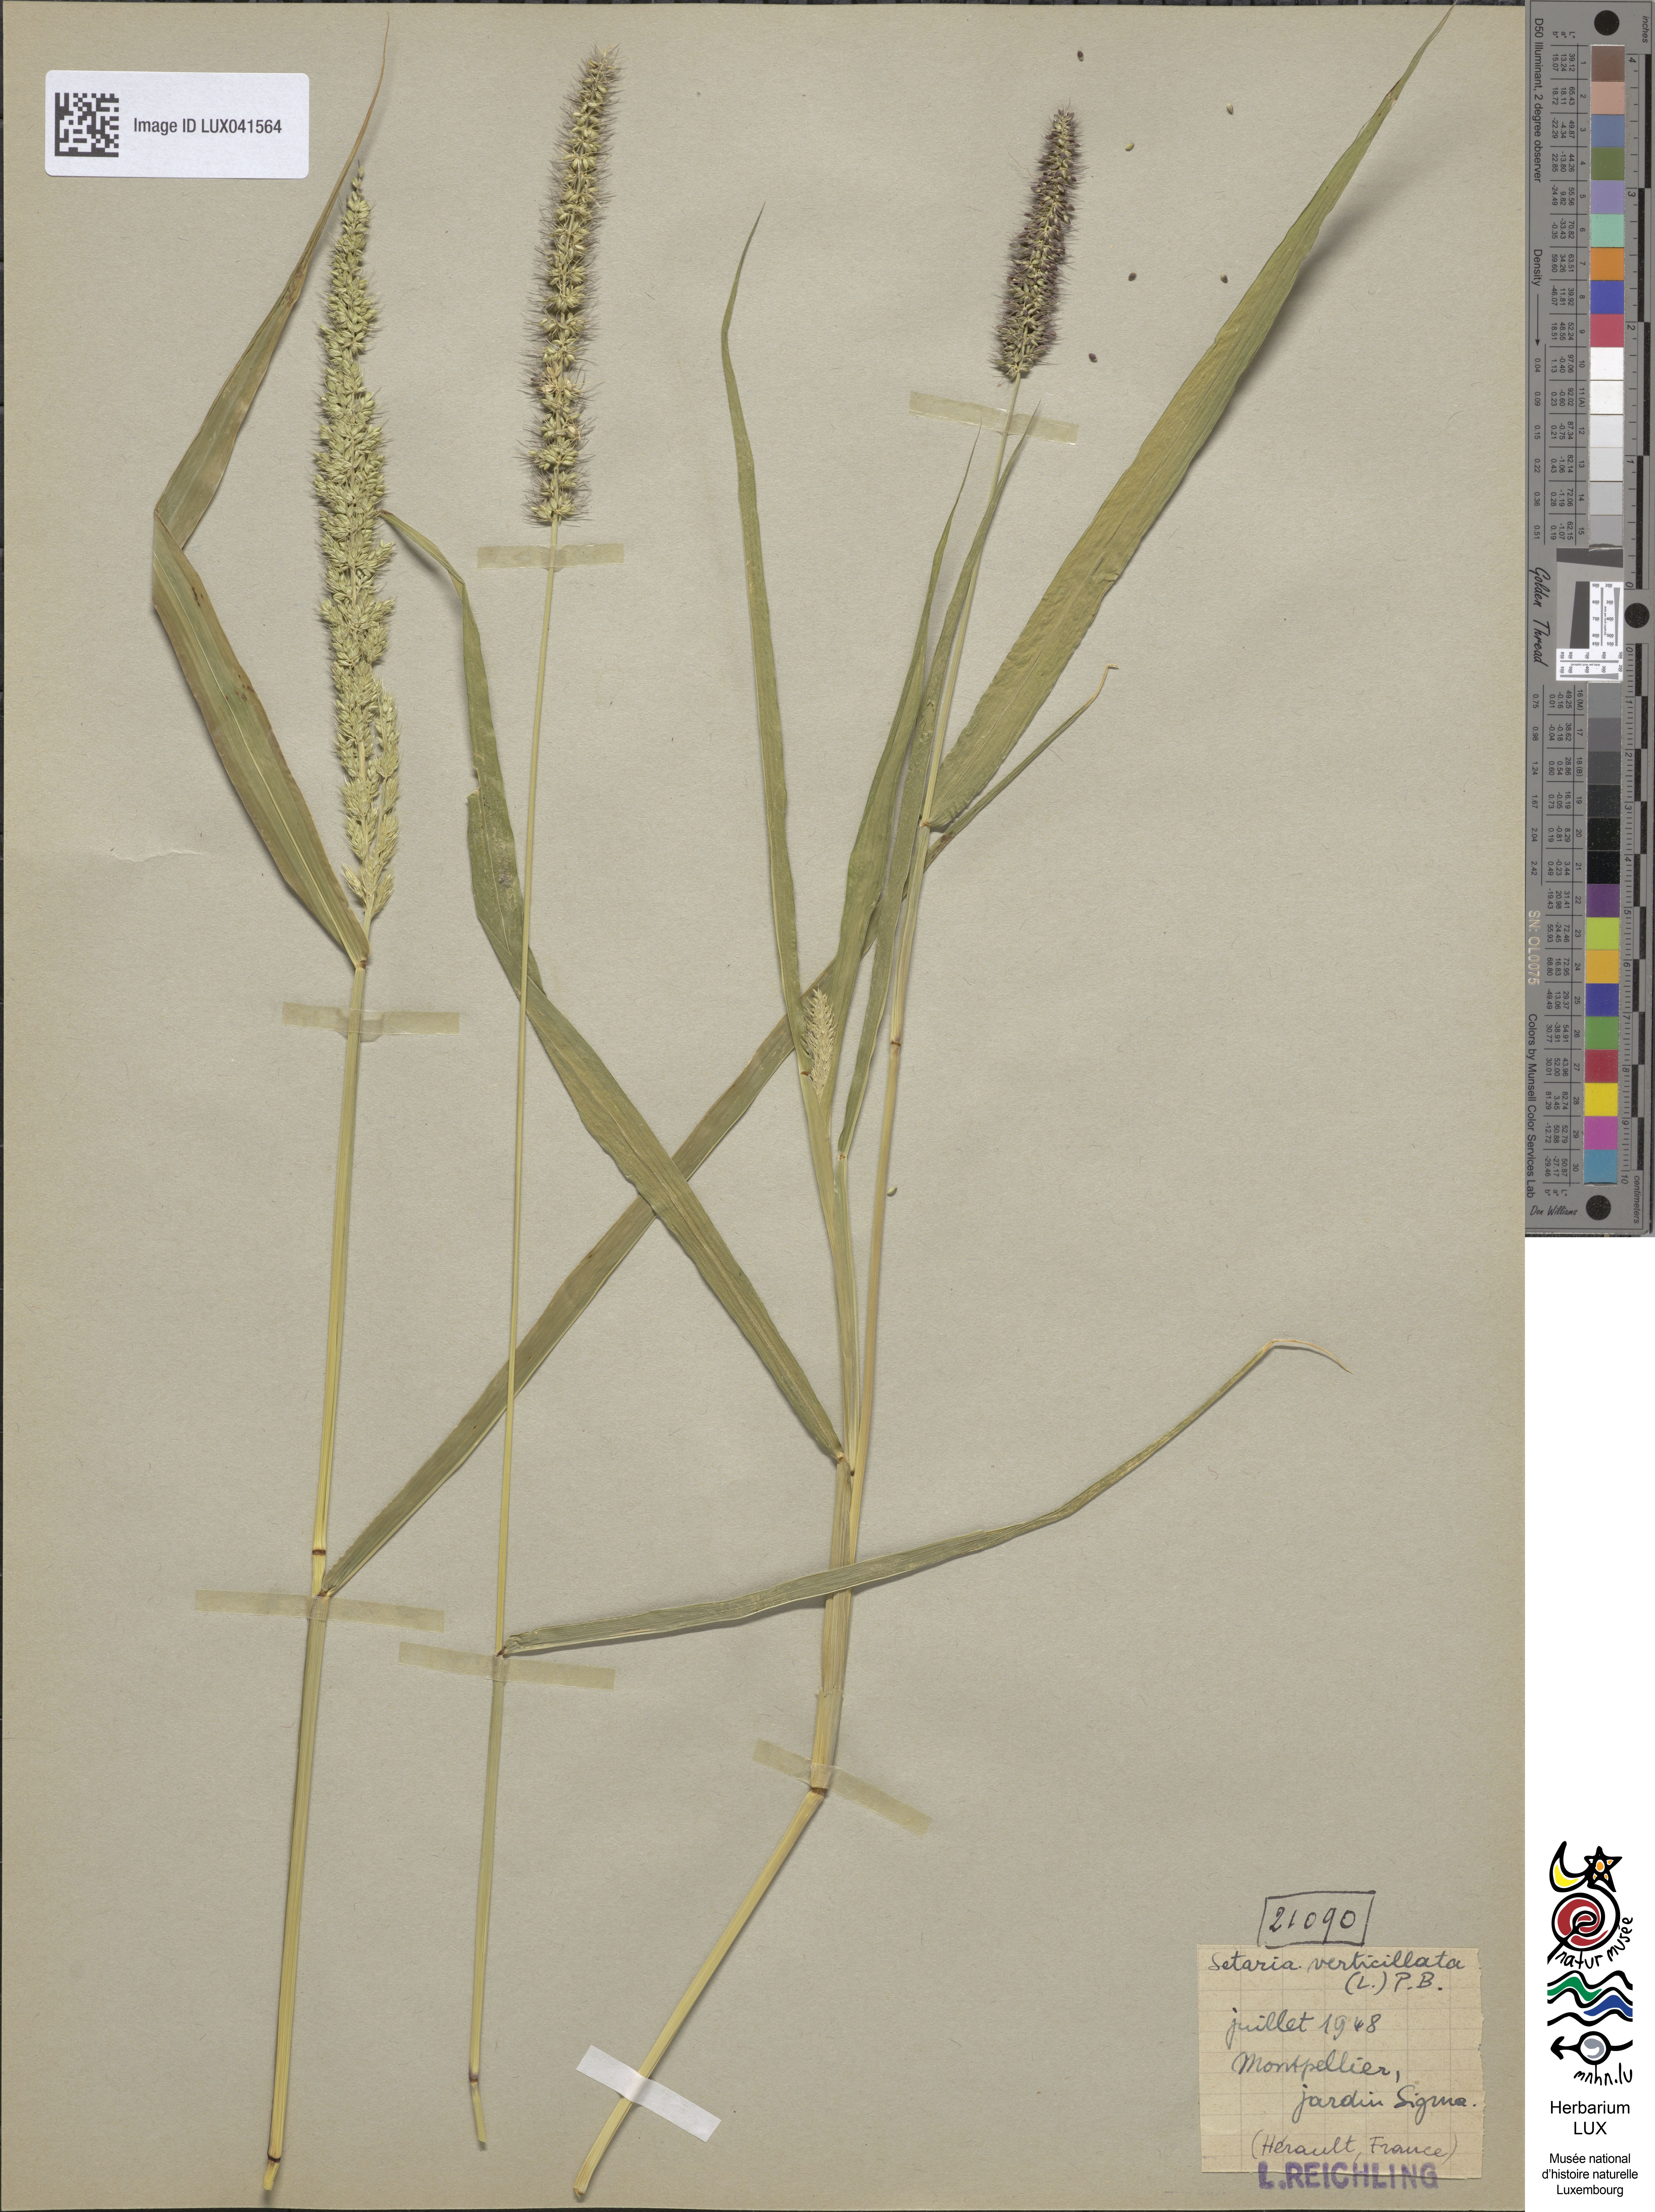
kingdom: Plantae
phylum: Tracheophyta
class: Liliopsida
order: Poales
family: Poaceae
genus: Setaria
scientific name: Setaria verticillata
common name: Hooked bristlegrass
